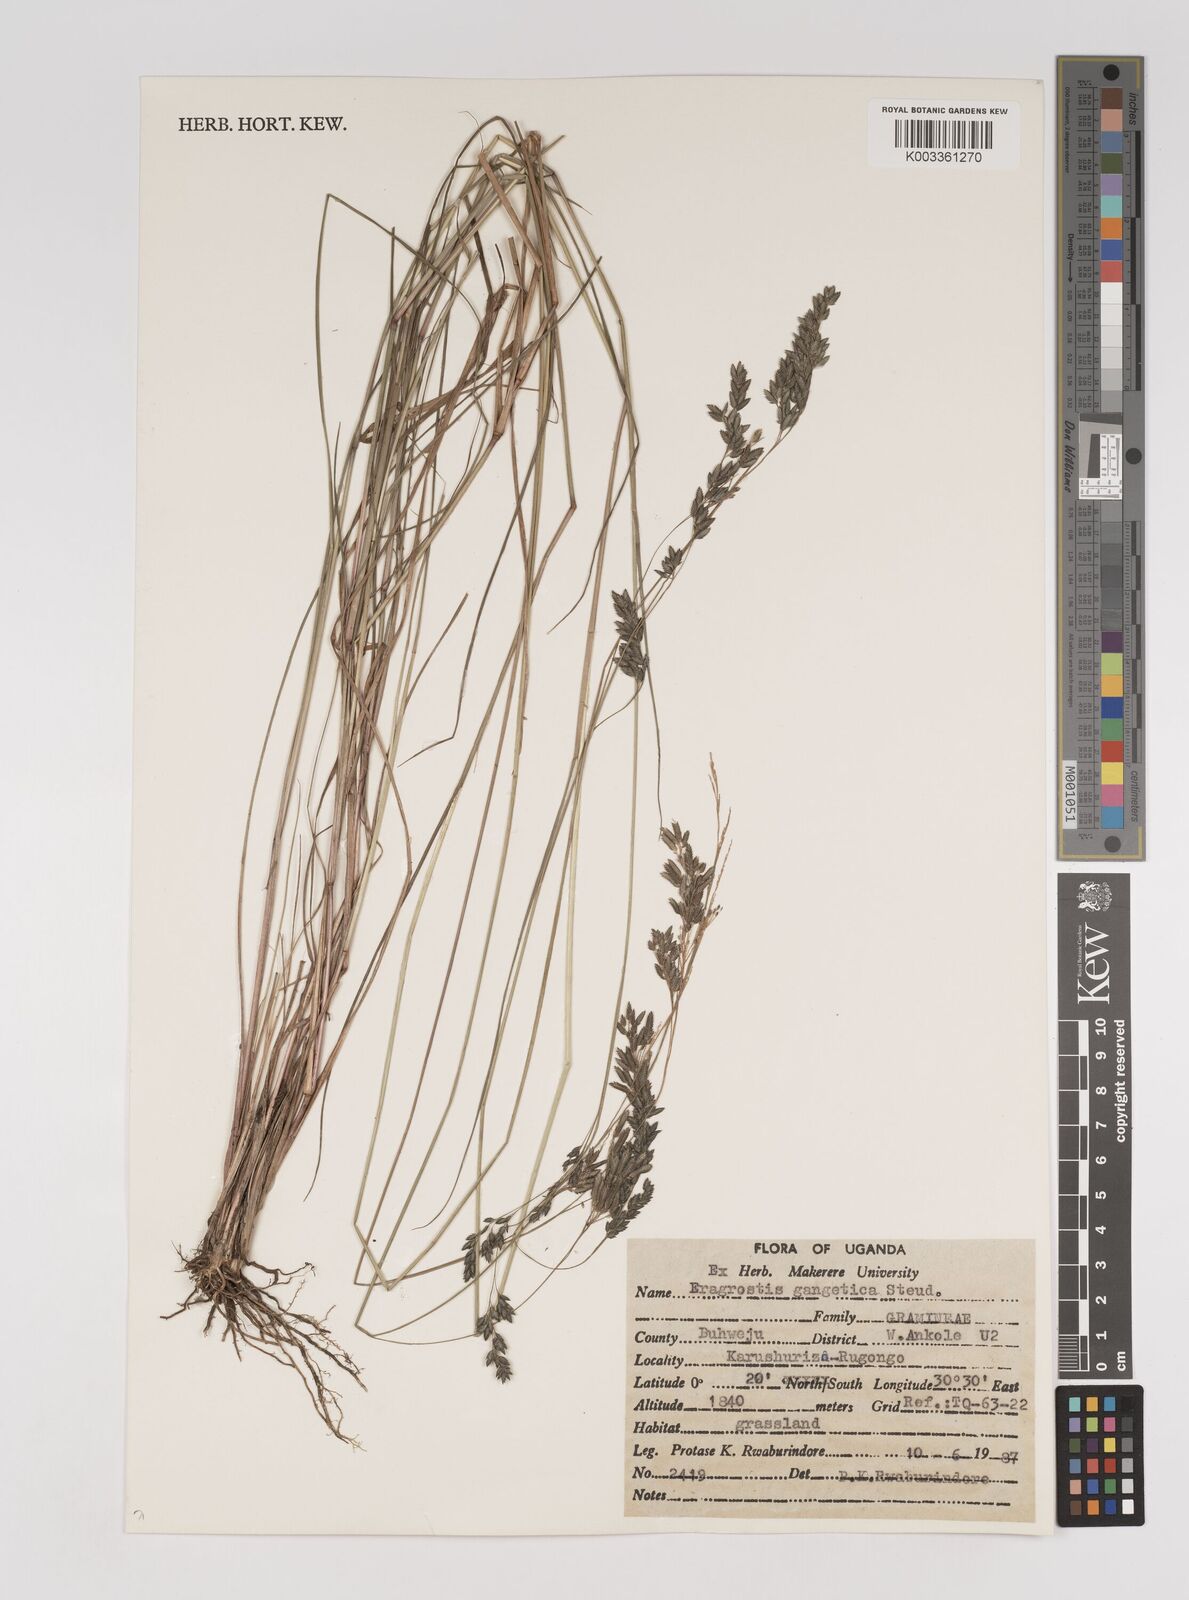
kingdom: Plantae
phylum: Tracheophyta
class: Liliopsida
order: Poales
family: Poaceae
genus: Eragrostis
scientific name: Eragrostis gangetica
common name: Slimflower lovegrass
